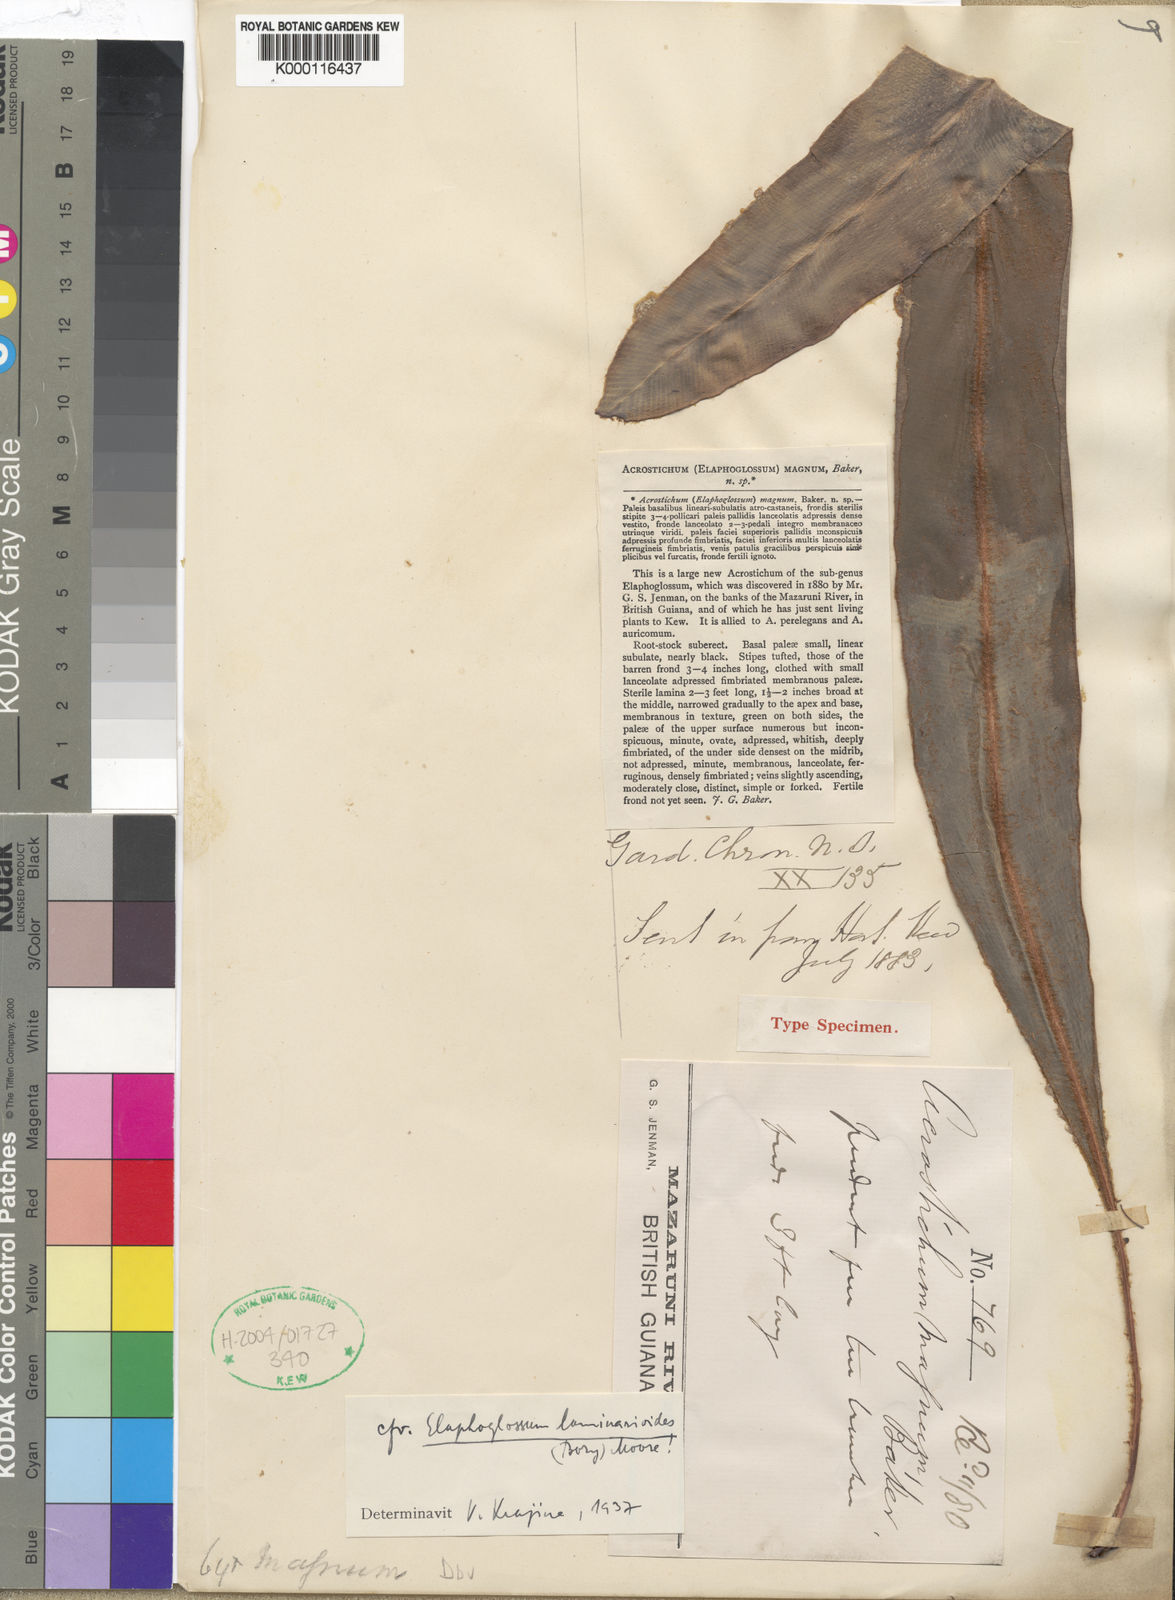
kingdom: Plantae
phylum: Tracheophyta
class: Polypodiopsida
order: Polypodiales
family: Dryopteridaceae
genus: Elaphoglossum
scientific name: Elaphoglossum laminarioides
